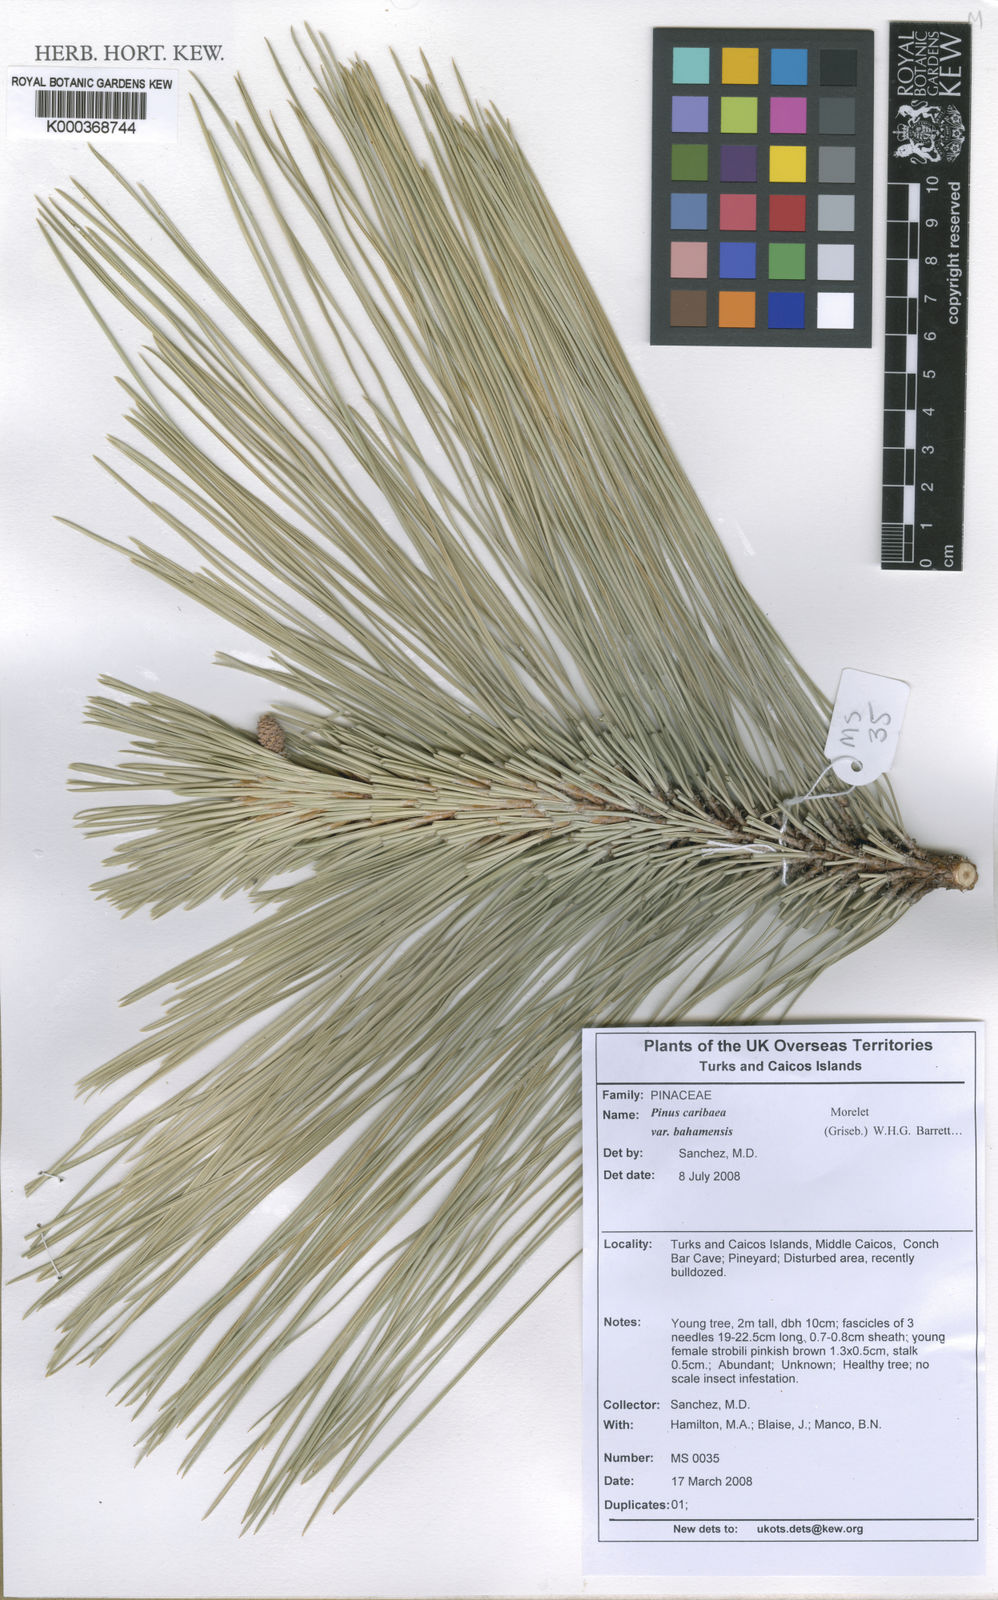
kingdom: Plantae
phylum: Tracheophyta
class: Pinopsida
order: Pinales
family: Pinaceae
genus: Pinus
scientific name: Pinus caribaea
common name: Caribbean pine
